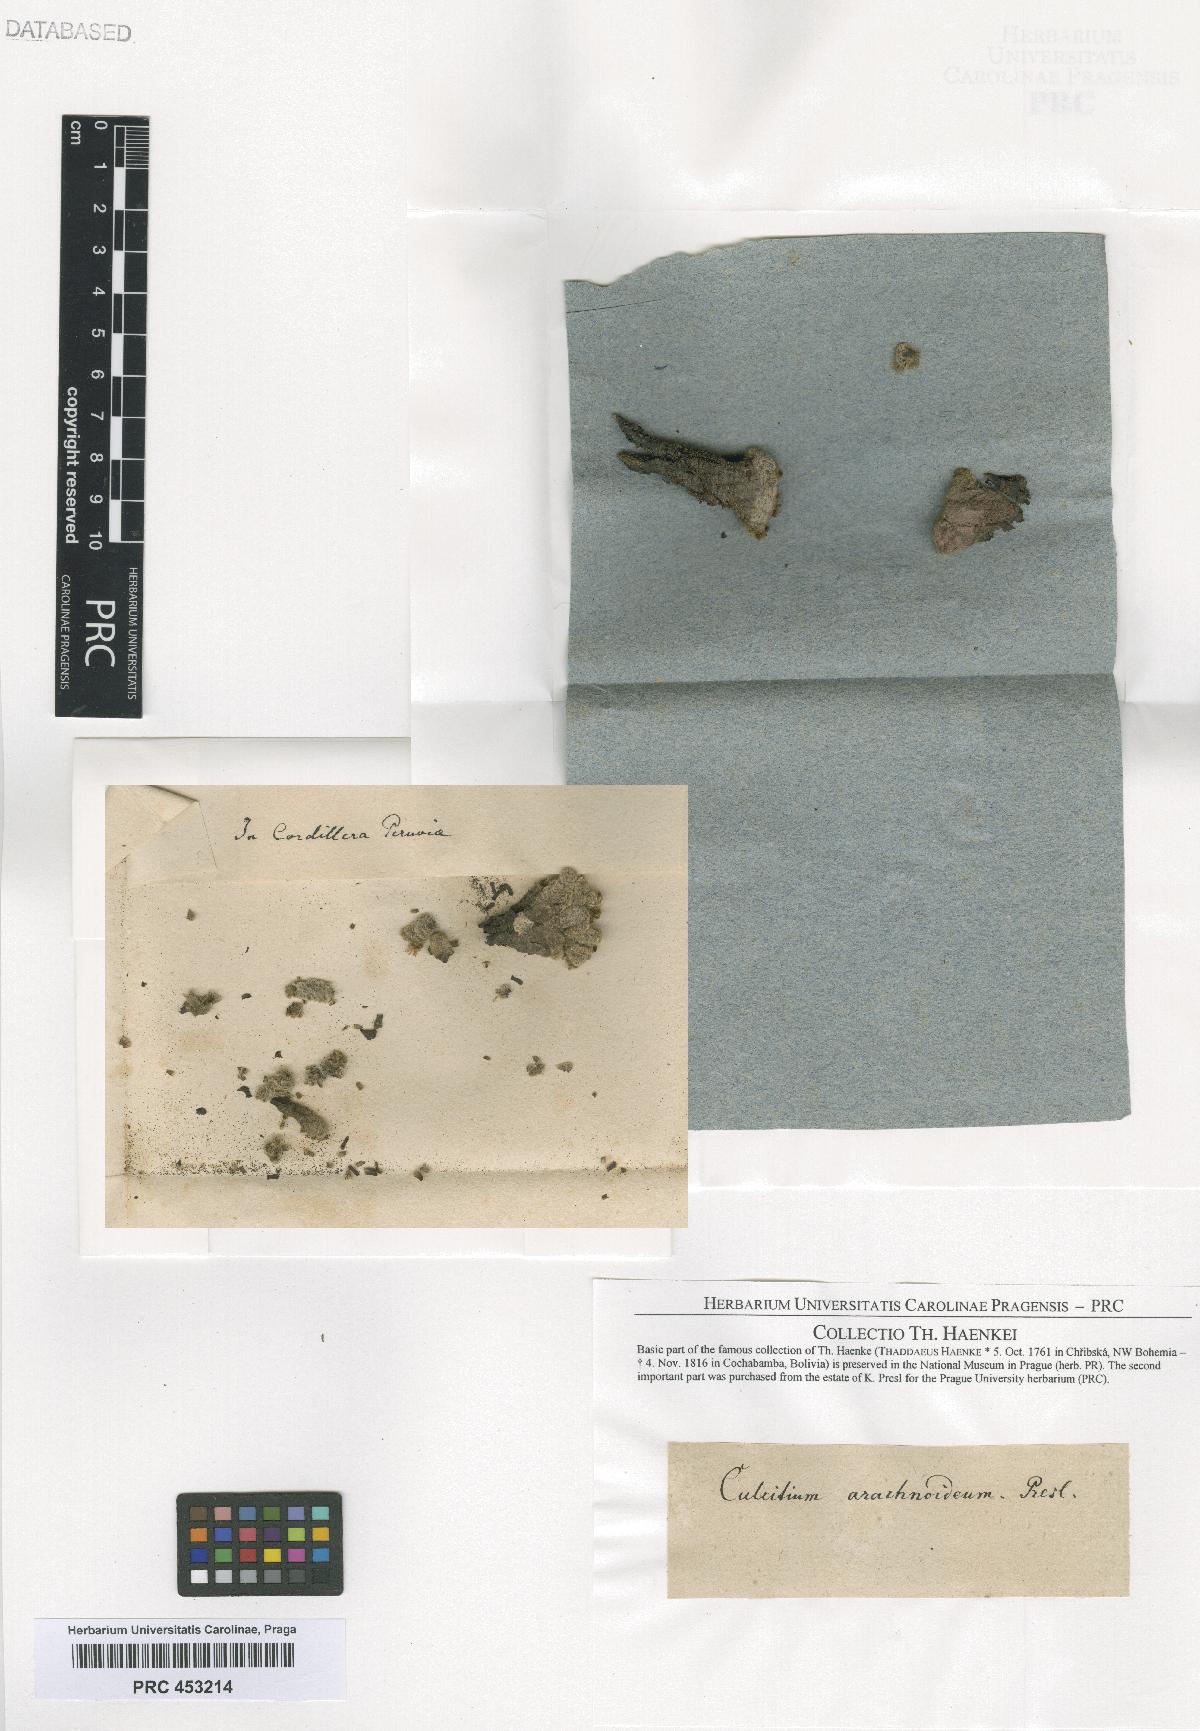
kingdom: Plantae
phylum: Tracheophyta
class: Magnoliopsida
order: Asterales
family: Asteraceae
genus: Culcitium
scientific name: Culcitium
